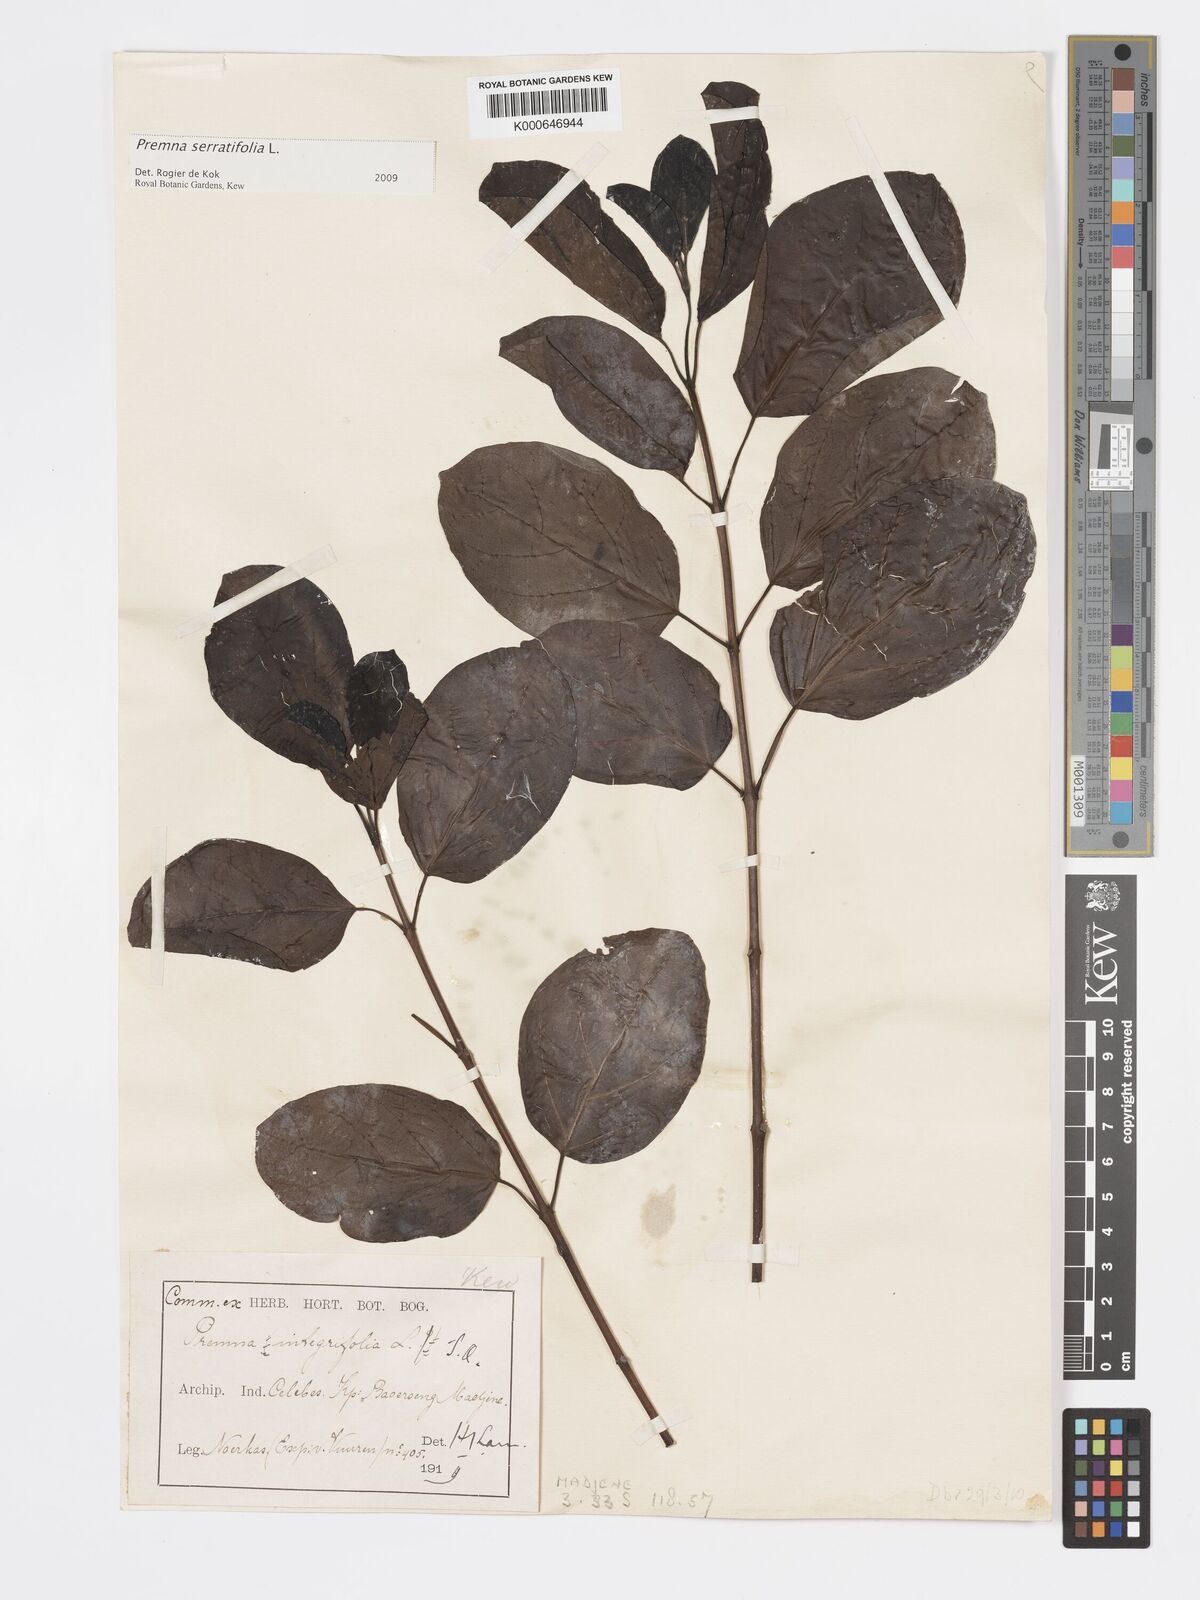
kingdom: Plantae
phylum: Tracheophyta
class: Magnoliopsida
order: Lamiales
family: Lamiaceae
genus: Premna
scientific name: Premna serratifolia
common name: Bastard guelder
